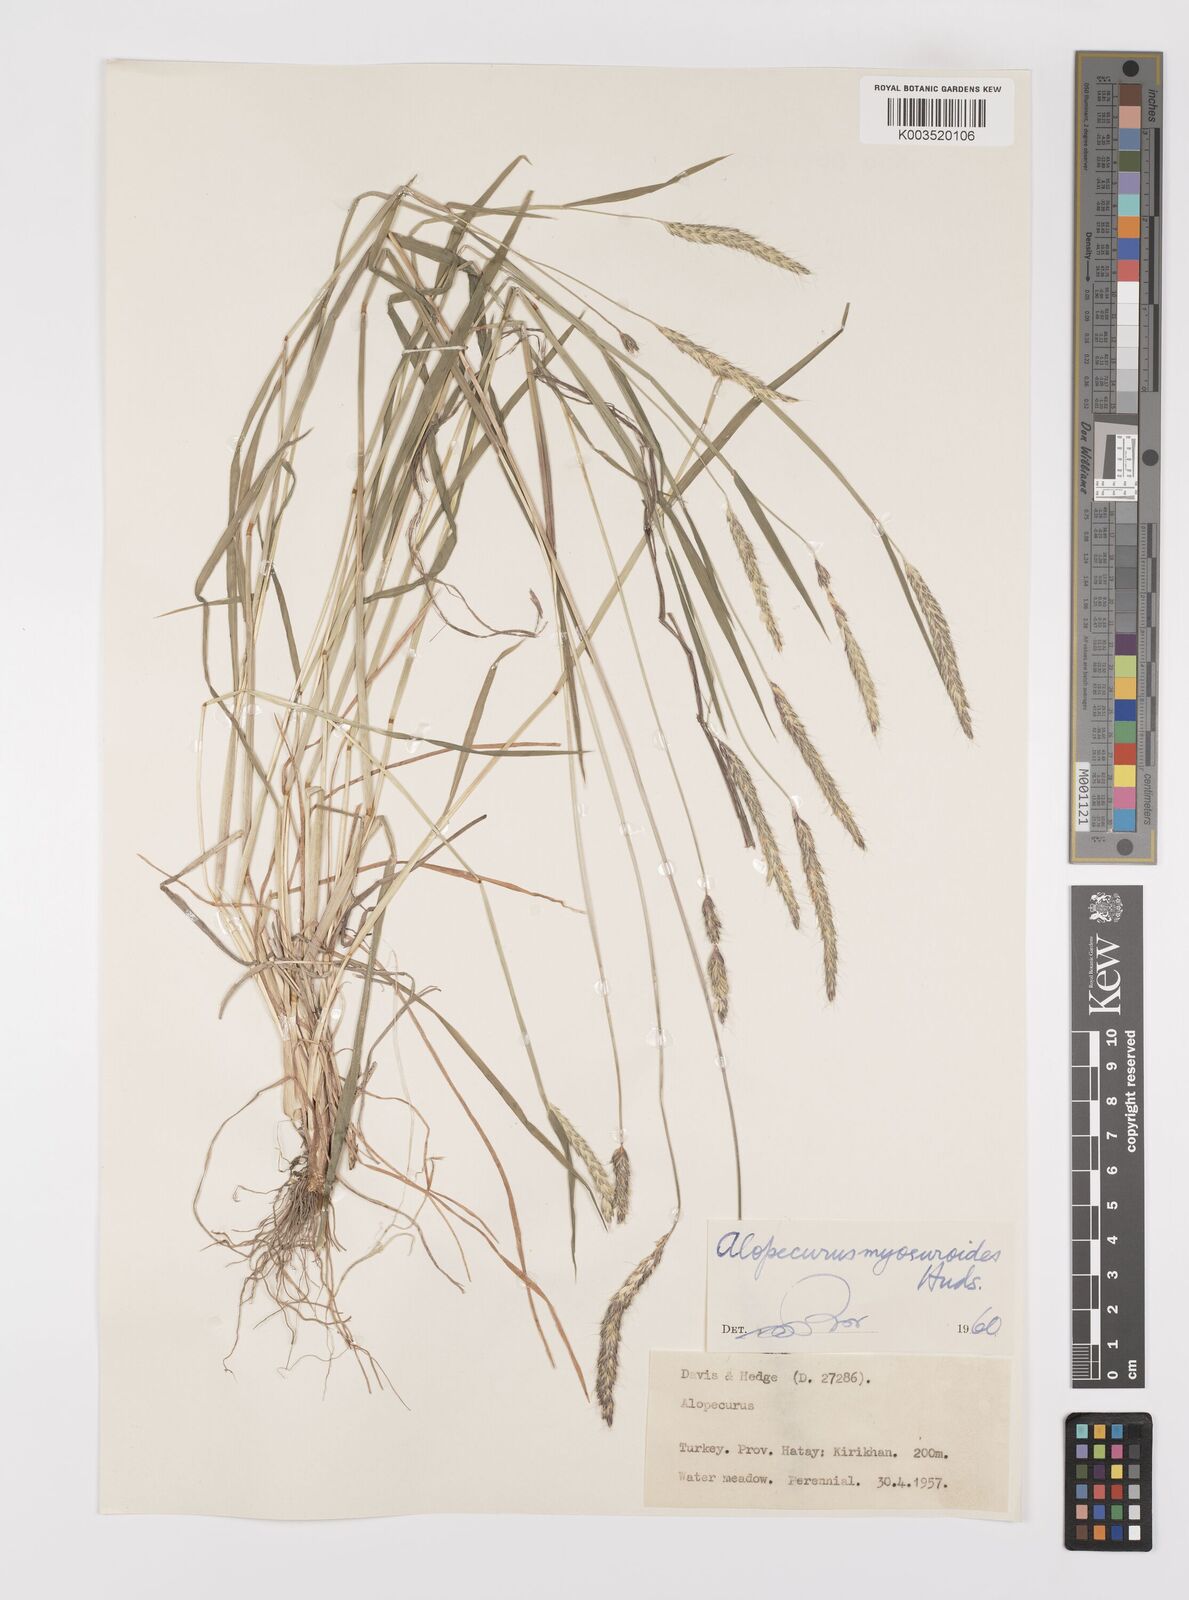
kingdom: Plantae
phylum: Tracheophyta
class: Liliopsida
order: Poales
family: Poaceae
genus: Alopecurus
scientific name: Alopecurus myosuroides
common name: Black-grass
